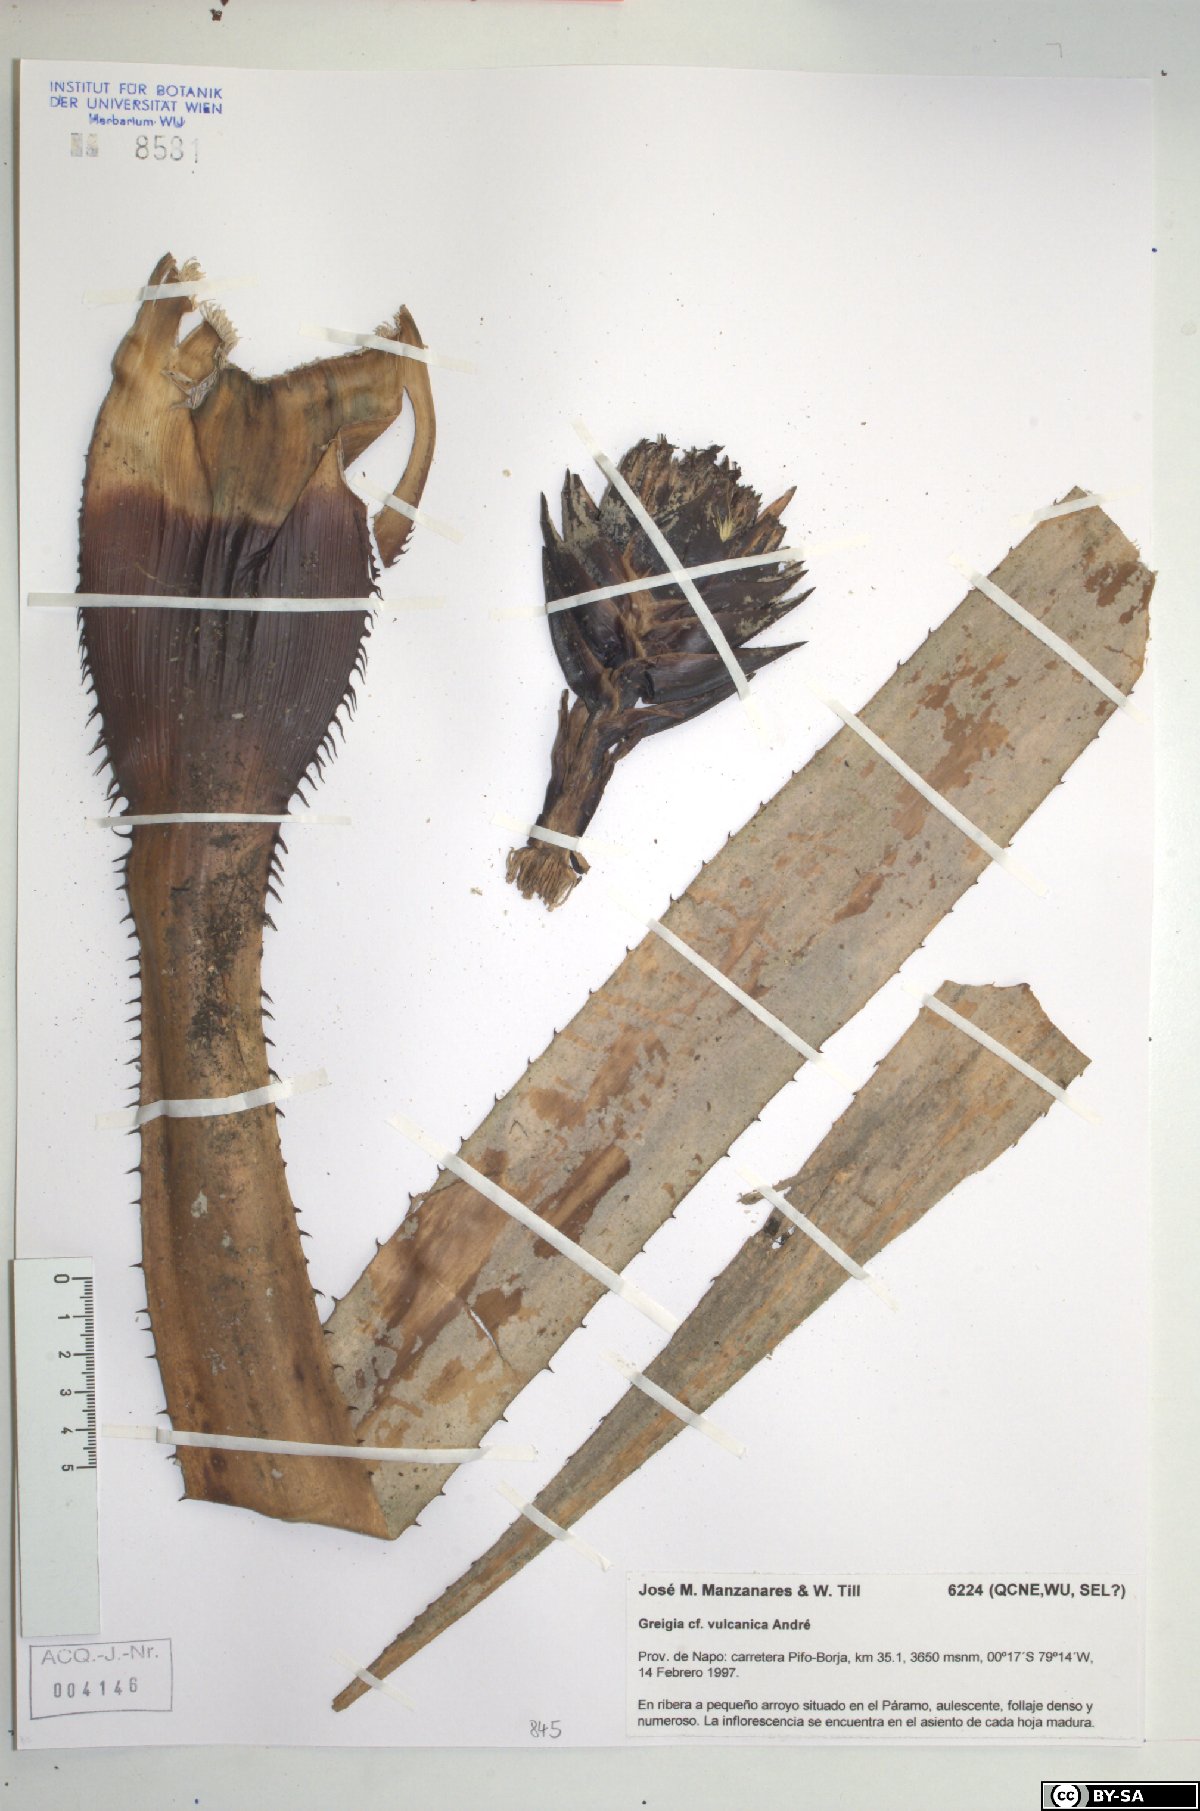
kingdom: Plantae
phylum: Tracheophyta
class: Liliopsida
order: Poales
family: Bromeliaceae
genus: Greigia
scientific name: Greigia vulcanica
